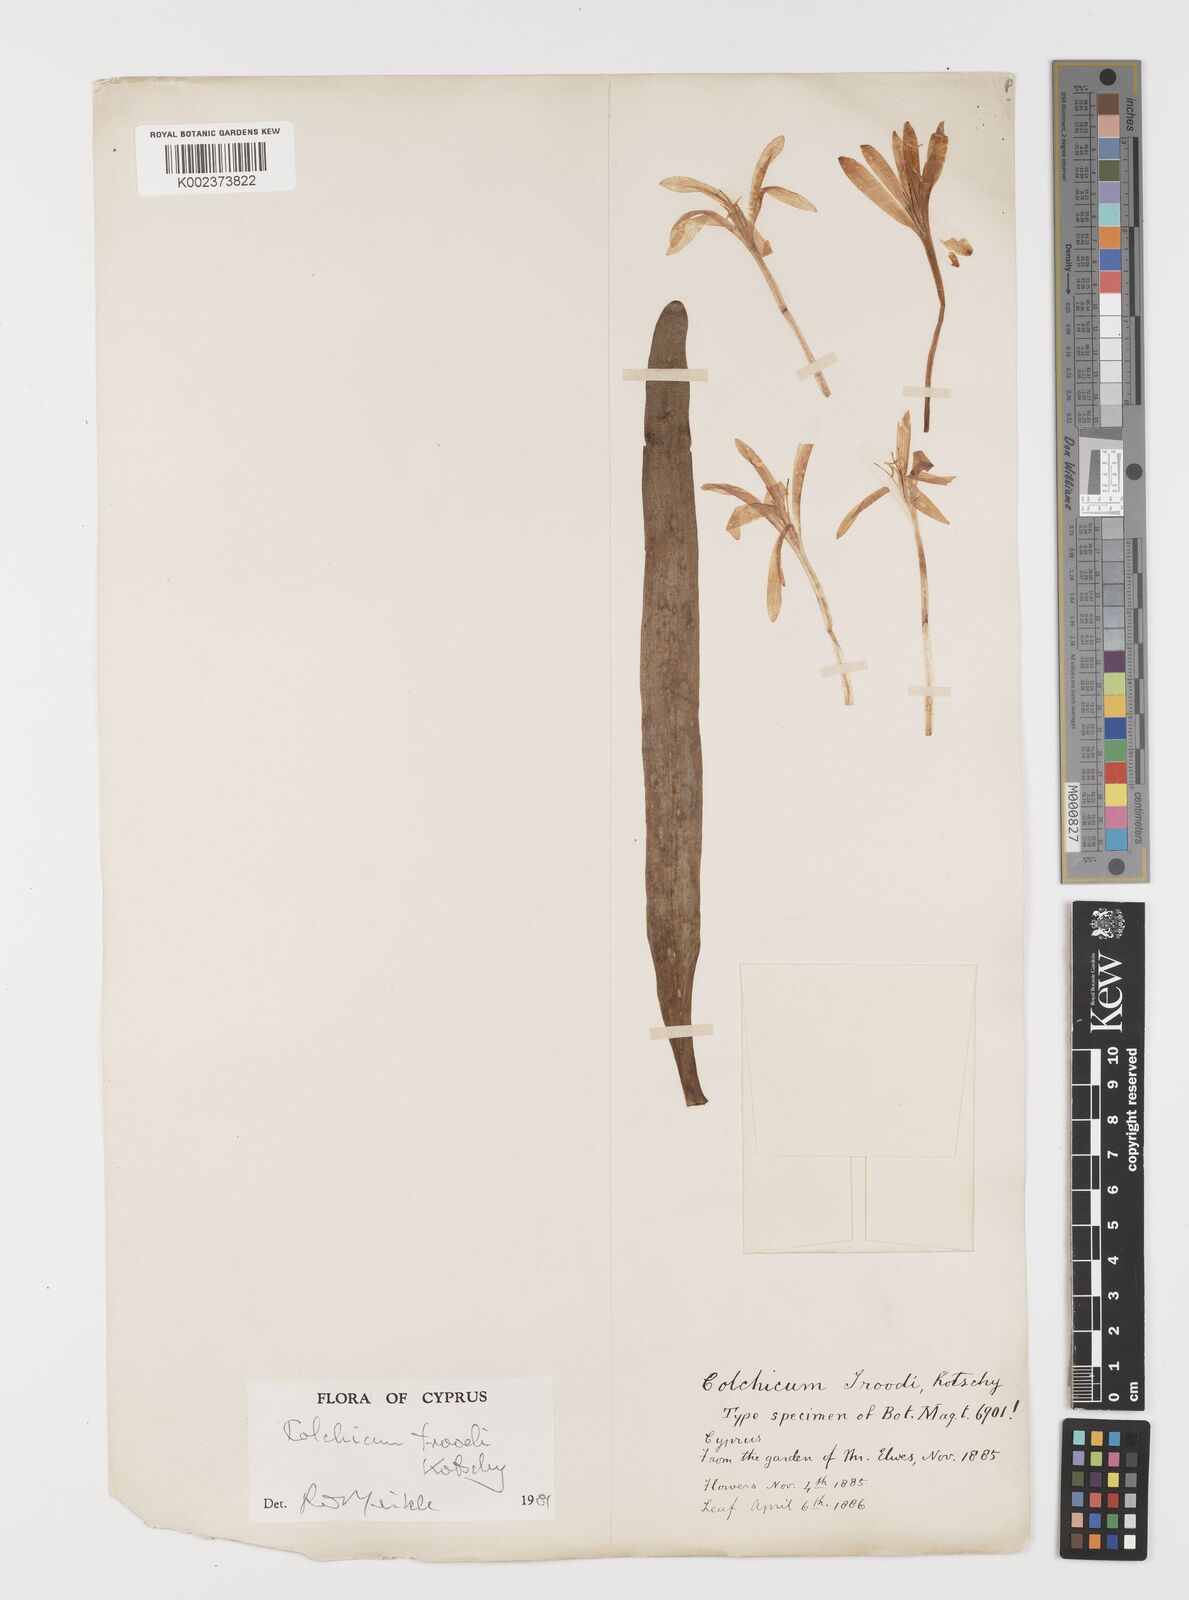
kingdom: Plantae
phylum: Tracheophyta
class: Liliopsida
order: Liliales
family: Colchicaceae
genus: Colchicum
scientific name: Colchicum troodi
